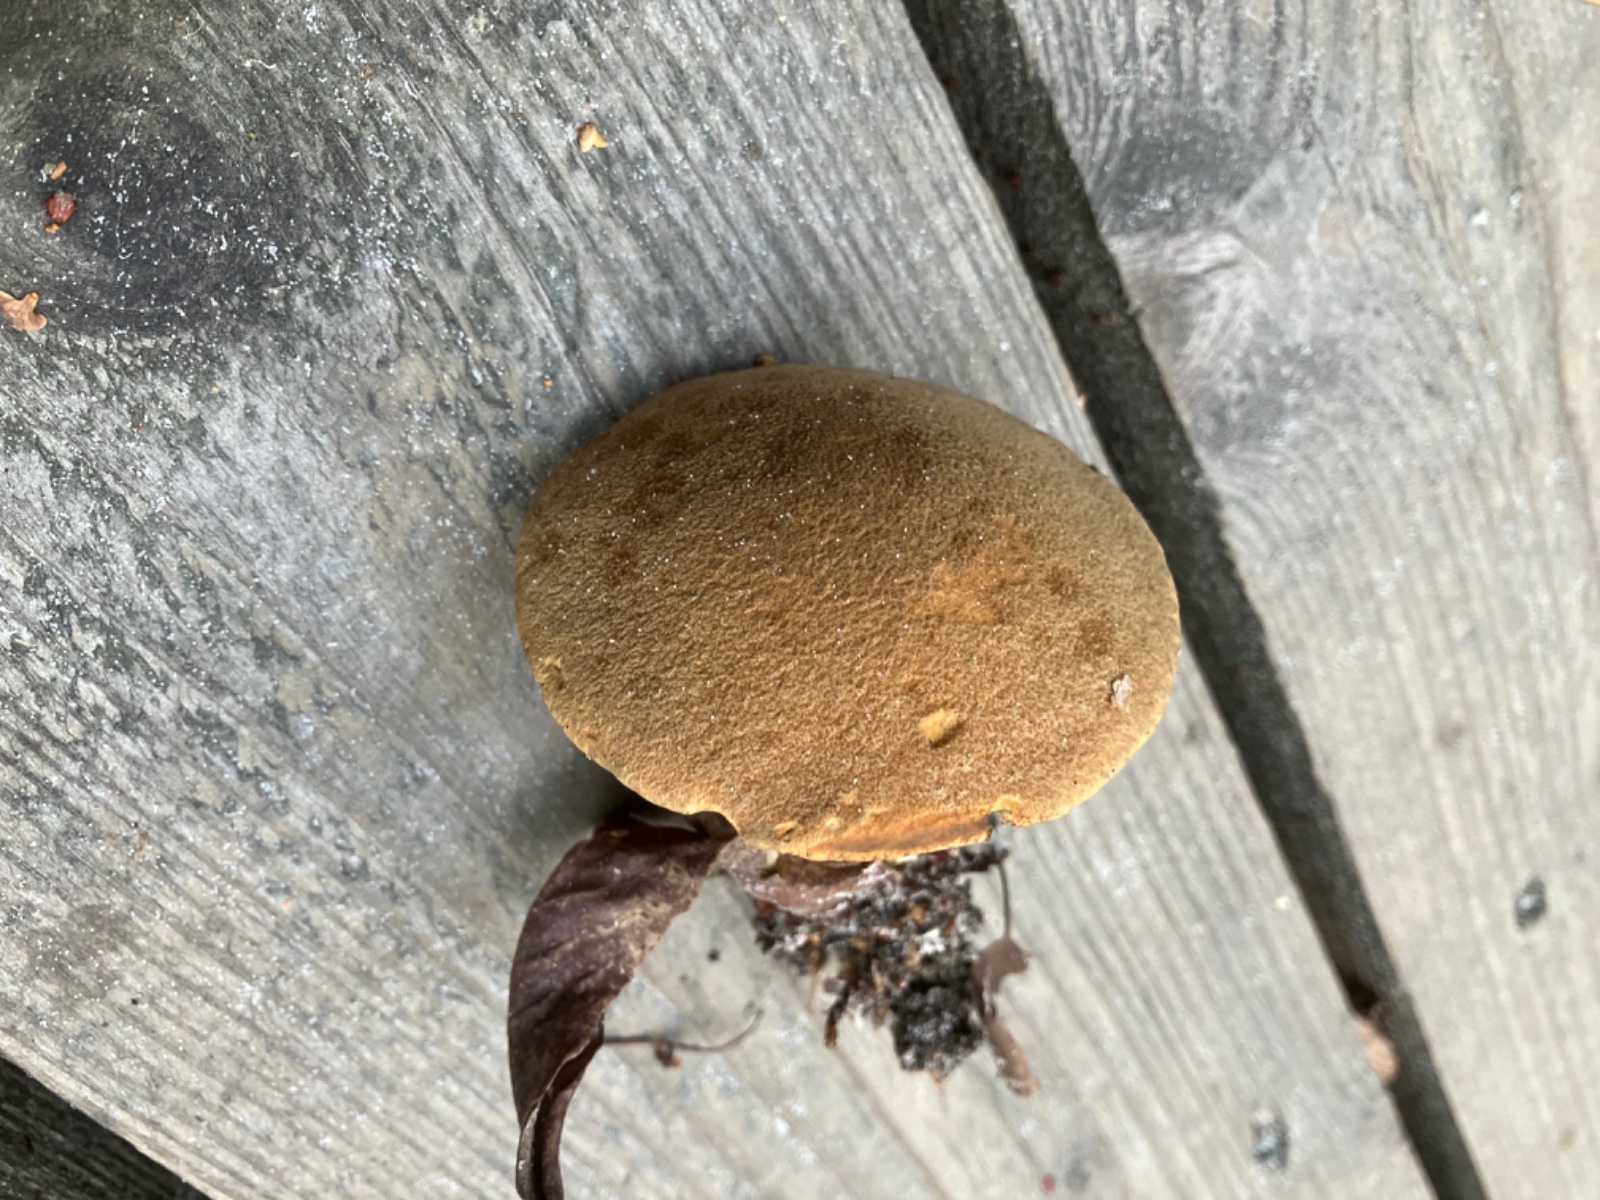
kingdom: Fungi
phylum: Basidiomycota
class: Agaricomycetes
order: Boletales
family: Suillaceae
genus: Suillus
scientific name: Suillus variegatus
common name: broget slimrørhat
